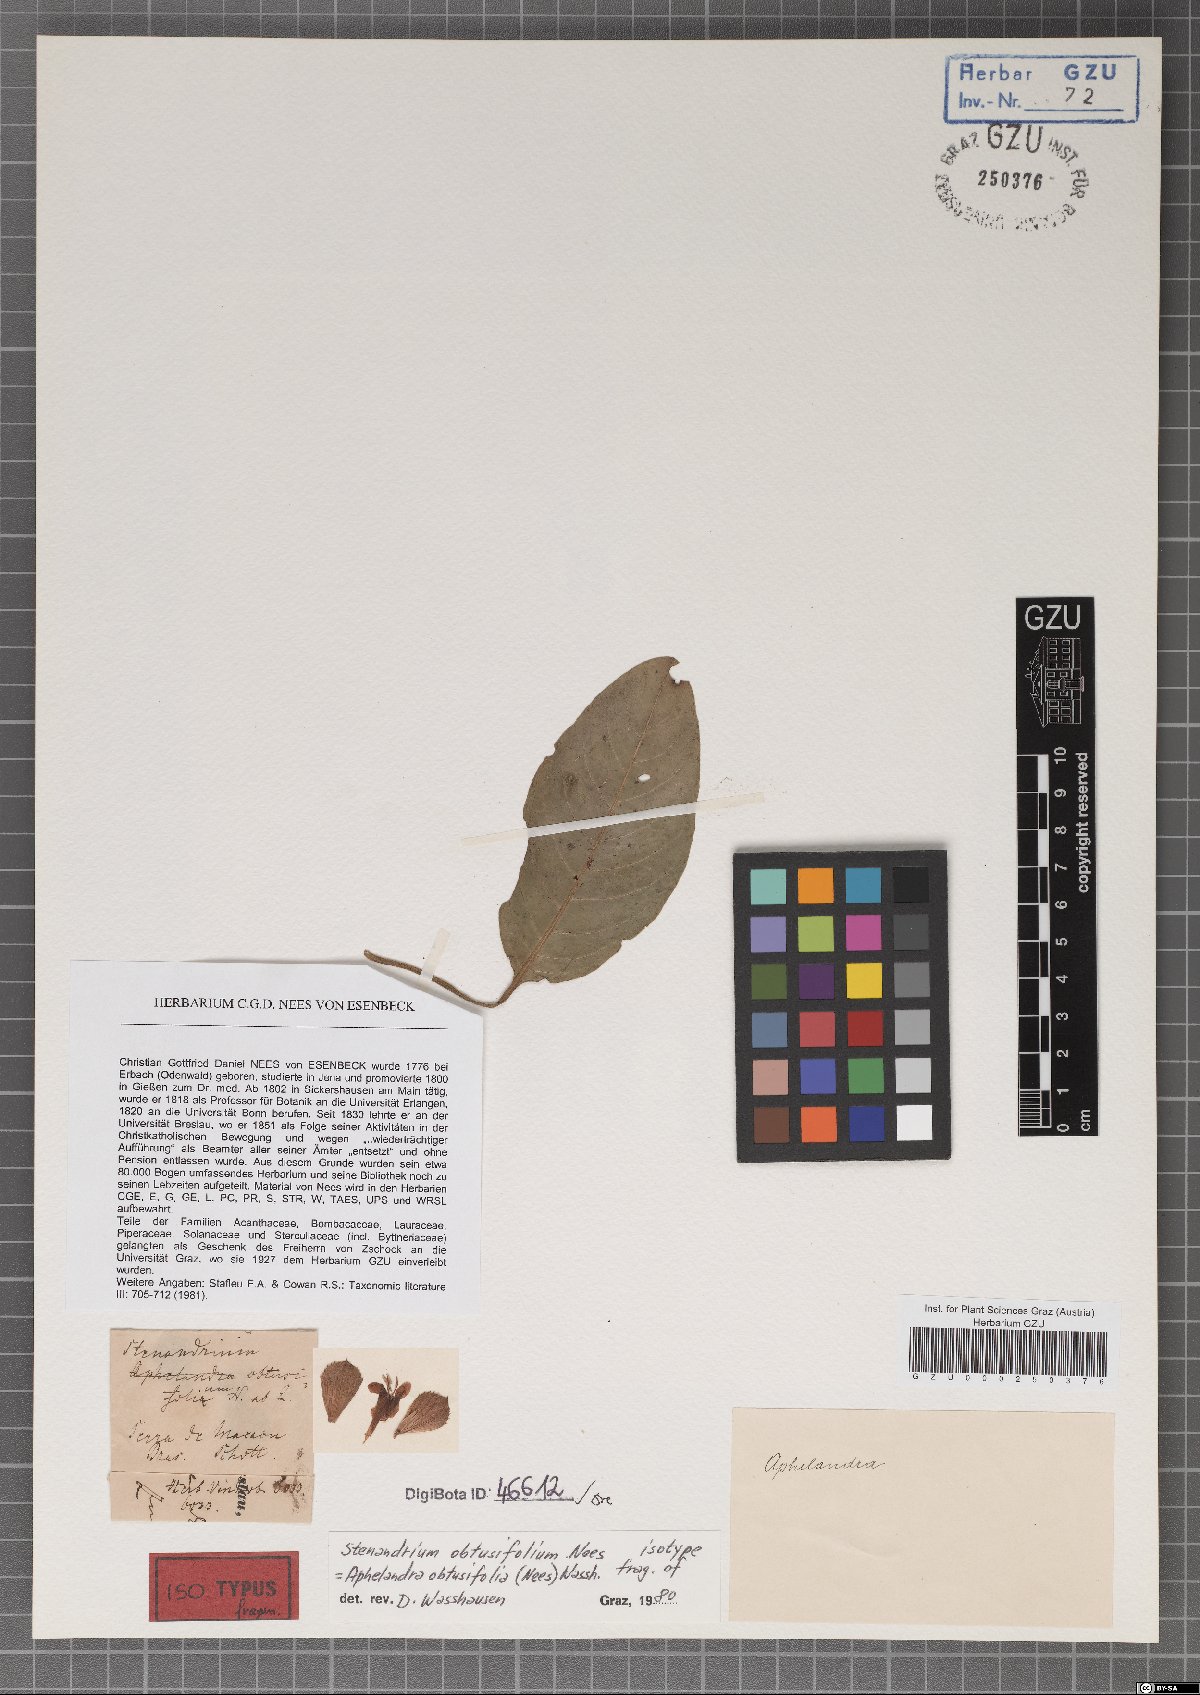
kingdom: Plantae
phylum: Tracheophyta
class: Magnoliopsida
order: Lamiales
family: Acanthaceae
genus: Aphelandra
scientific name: Aphelandra obtusifolia
